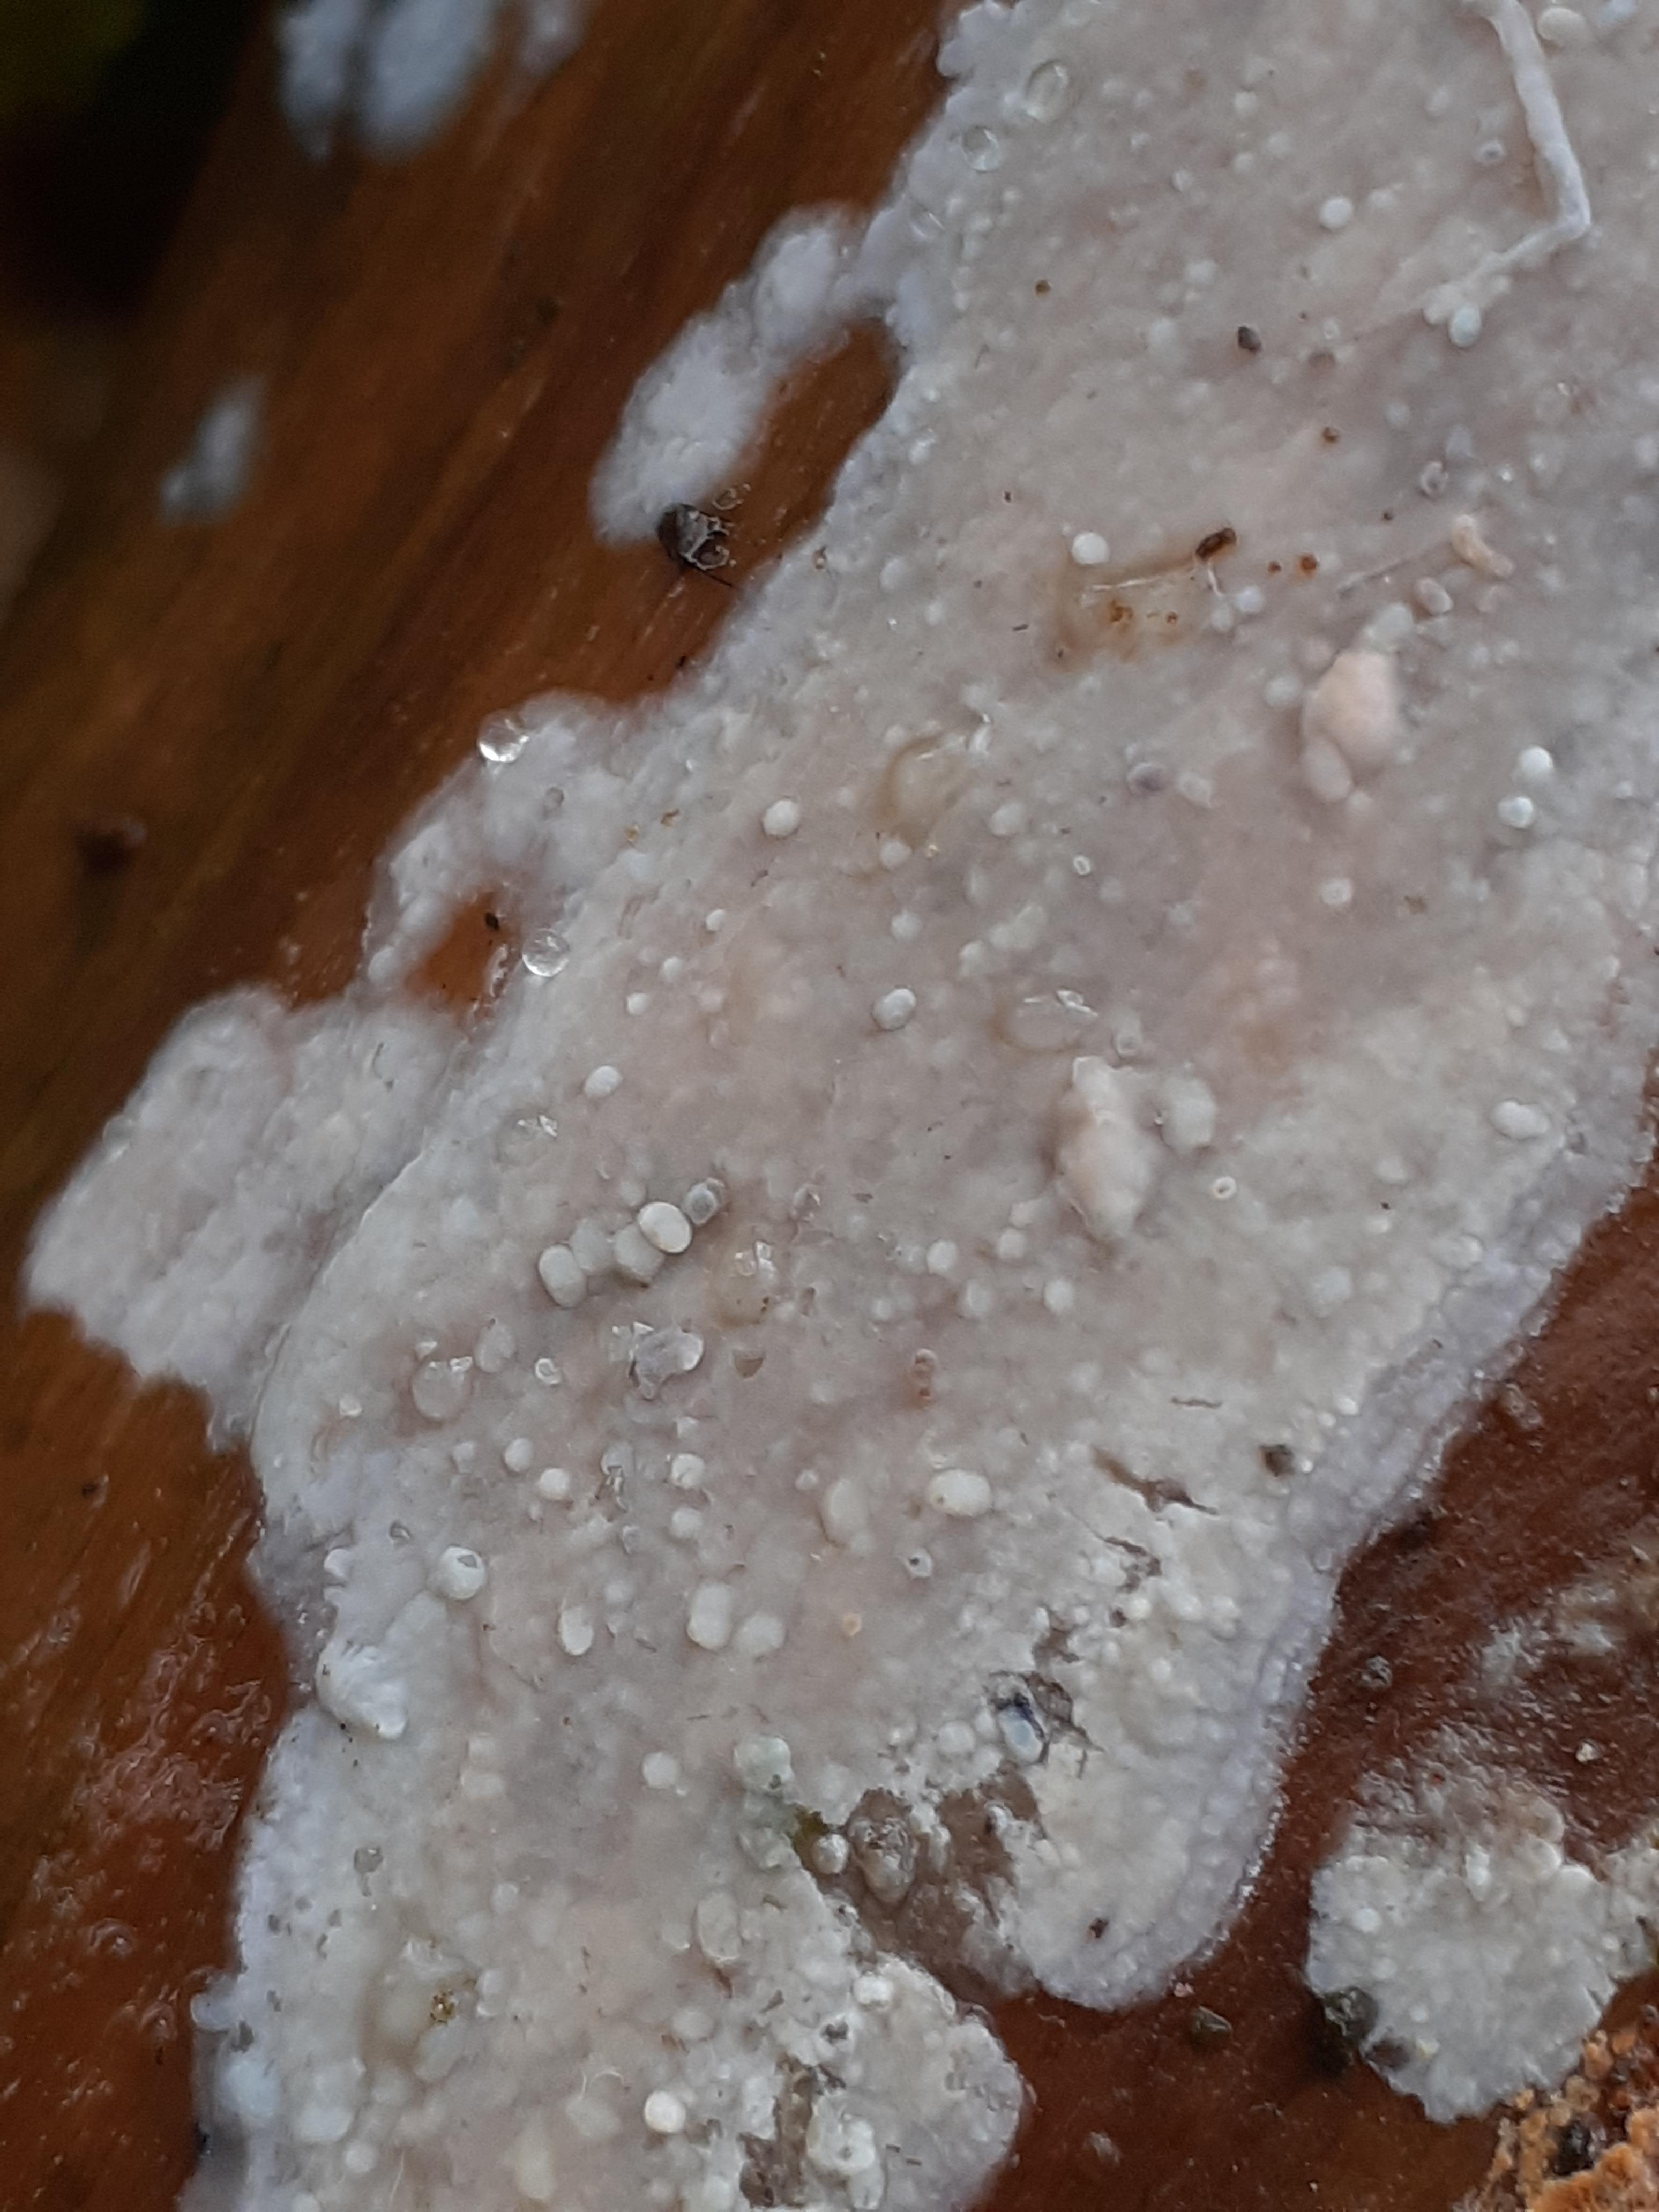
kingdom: Fungi
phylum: Basidiomycota
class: Agaricomycetes
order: Agaricales
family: Radulomycetaceae
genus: Radulomyces
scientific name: Radulomyces confluens
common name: glat naftalinskind
